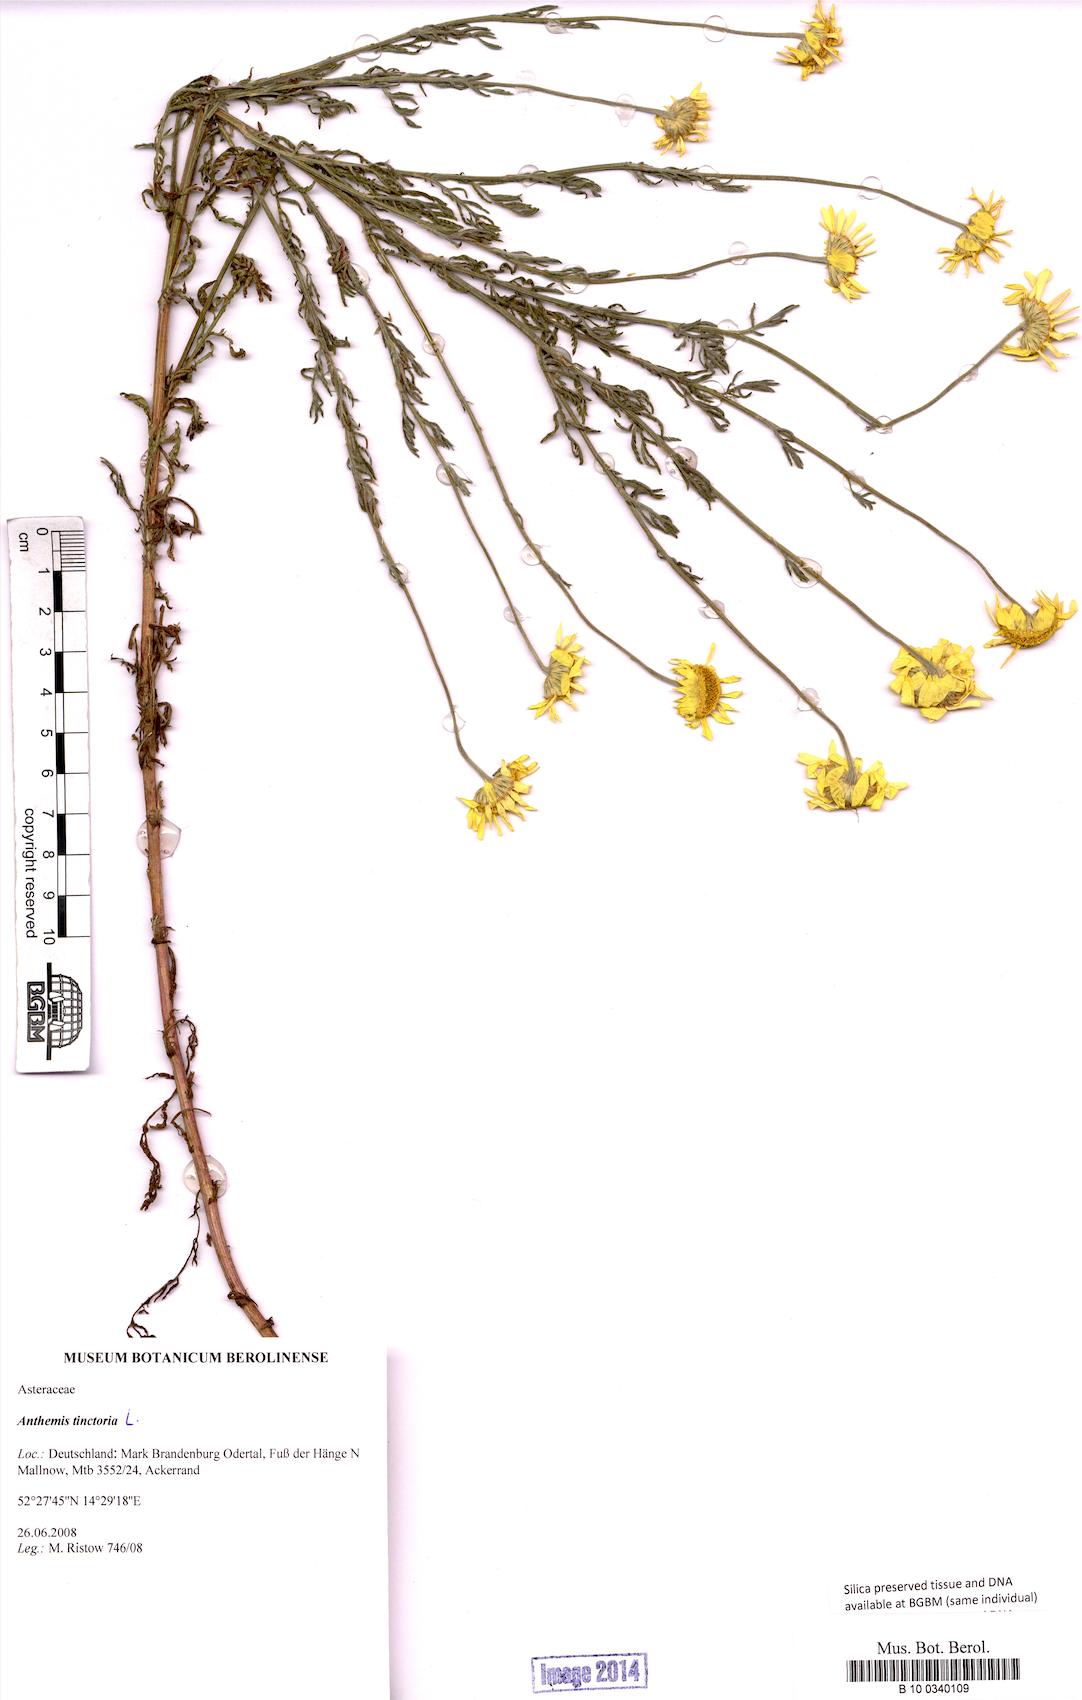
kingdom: Plantae
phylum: Tracheophyta
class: Magnoliopsida
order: Asterales
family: Asteraceae
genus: Cota
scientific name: Cota tinctoria
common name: Golden chamomile
